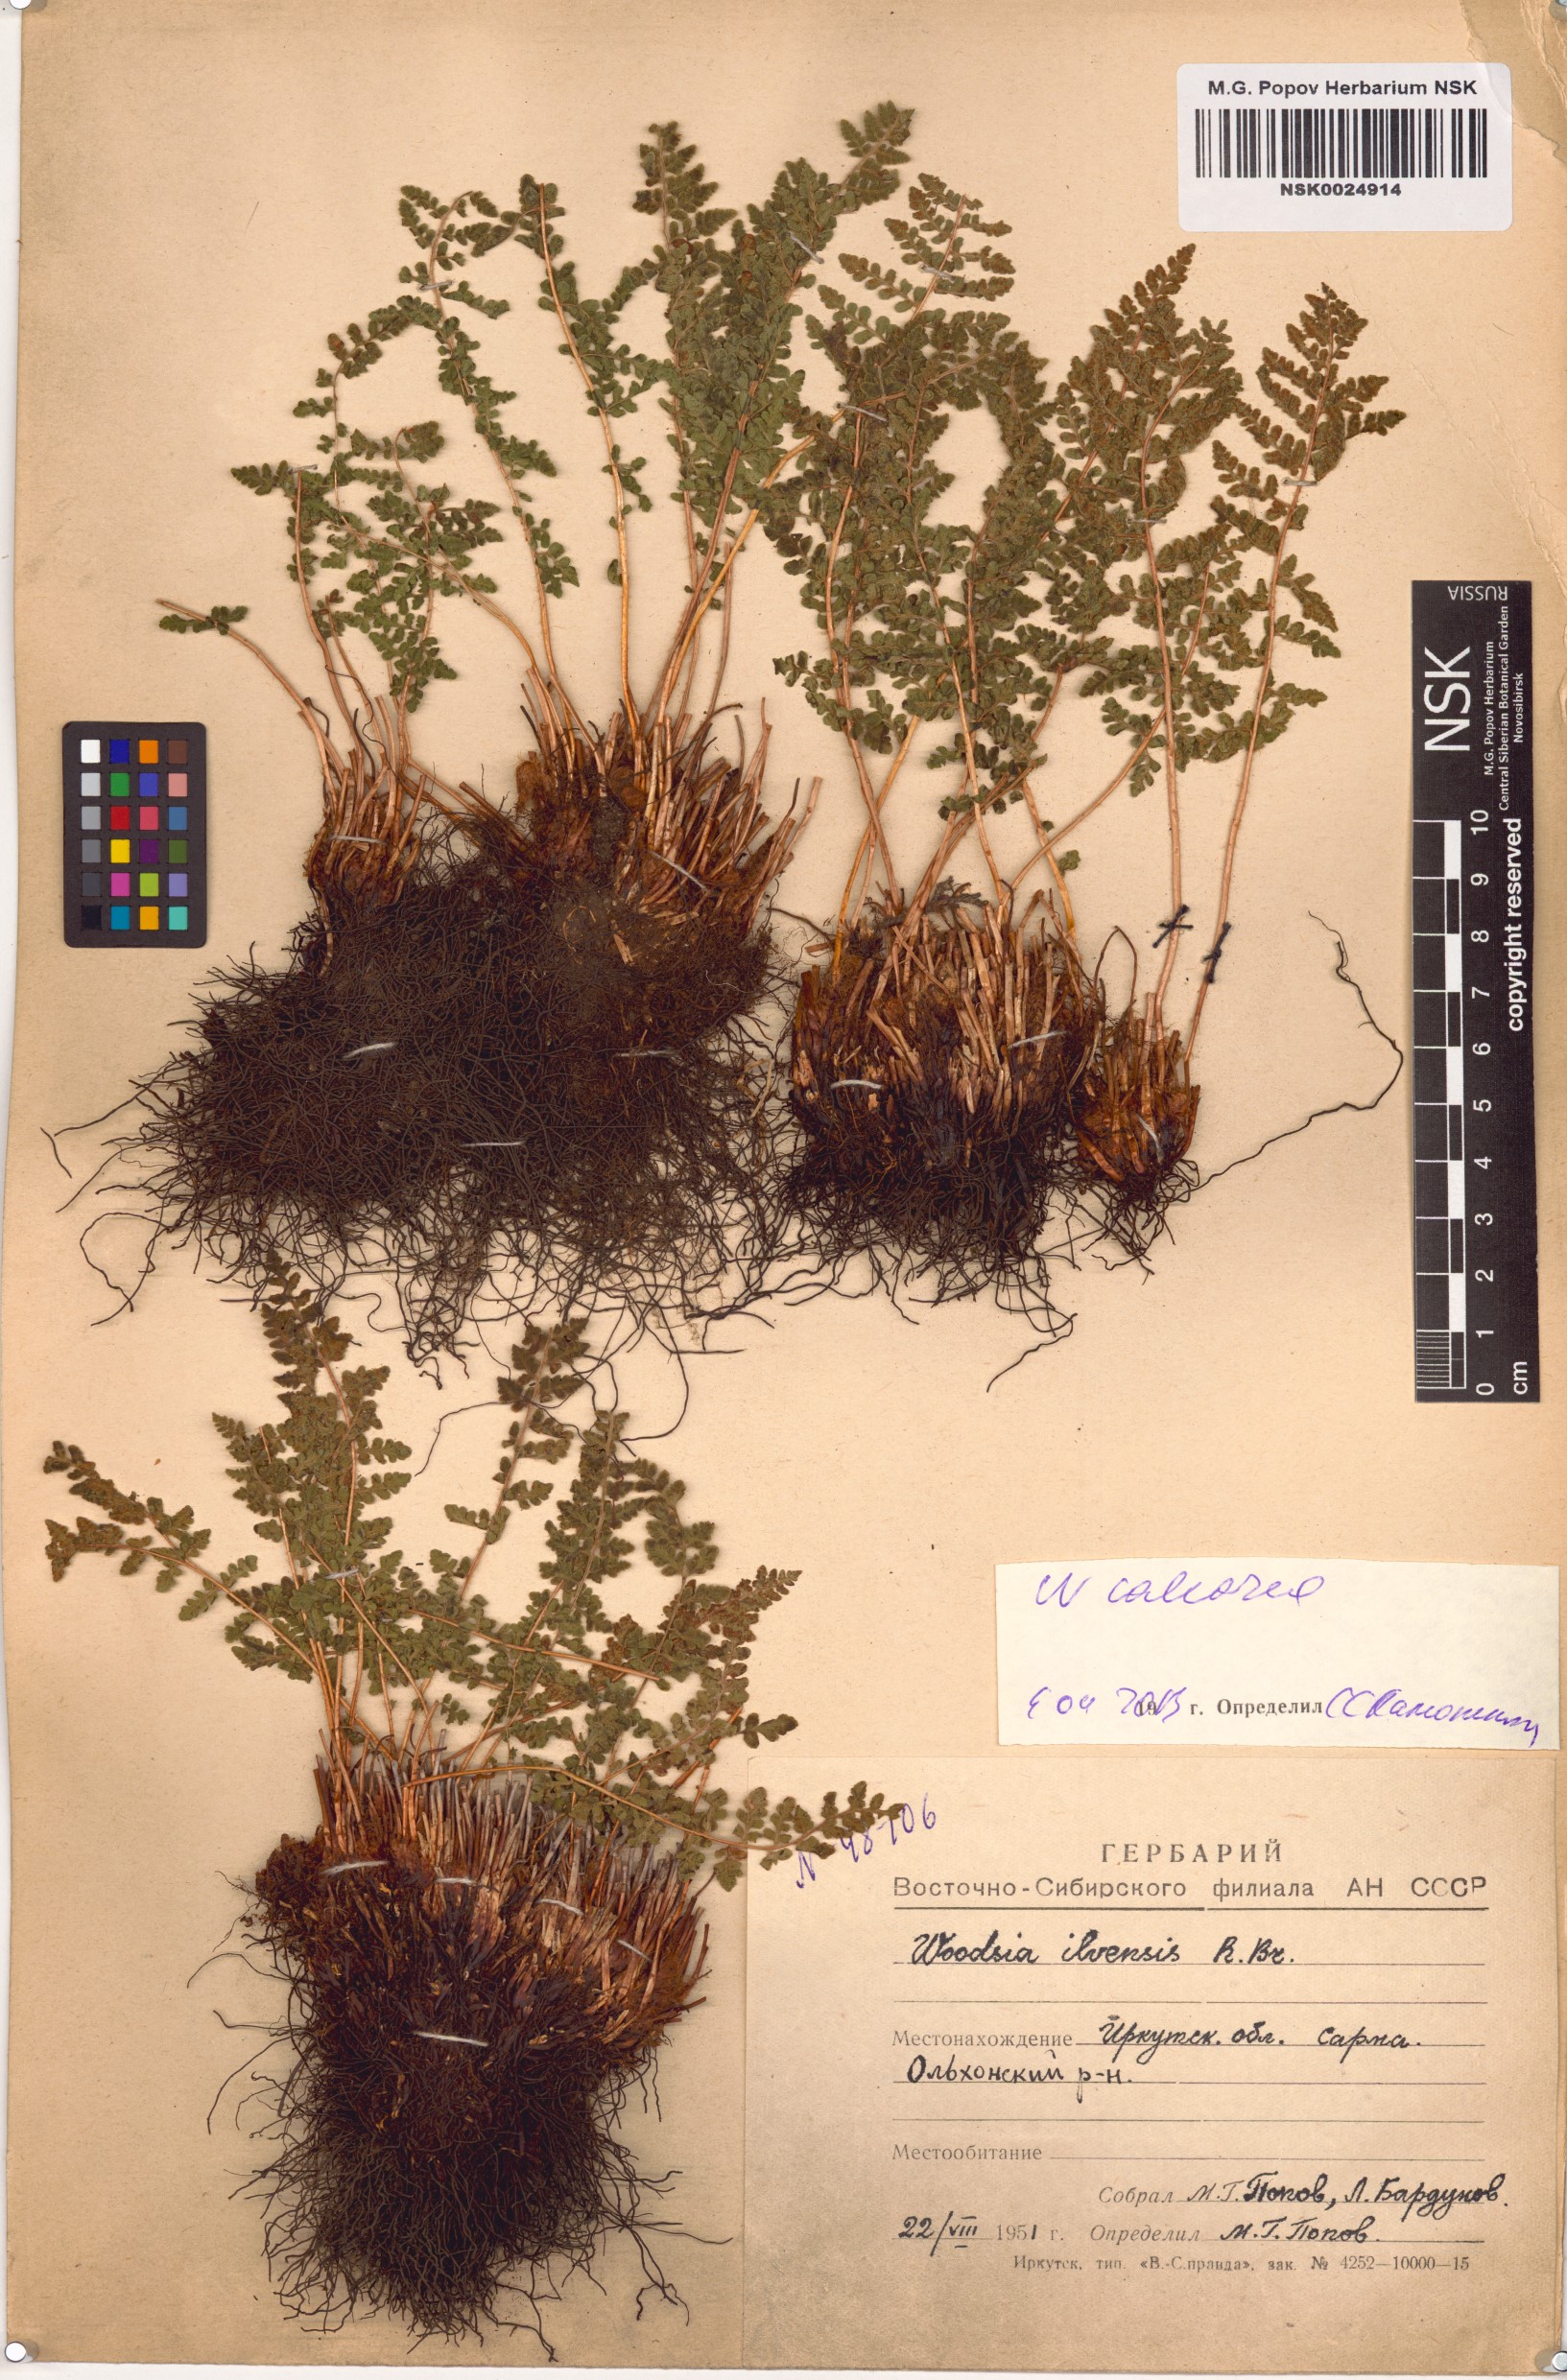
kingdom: Plantae
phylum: Tracheophyta
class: Polypodiopsida
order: Polypodiales
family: Woodsiaceae
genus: Woodsia
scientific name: Woodsia calcarea
